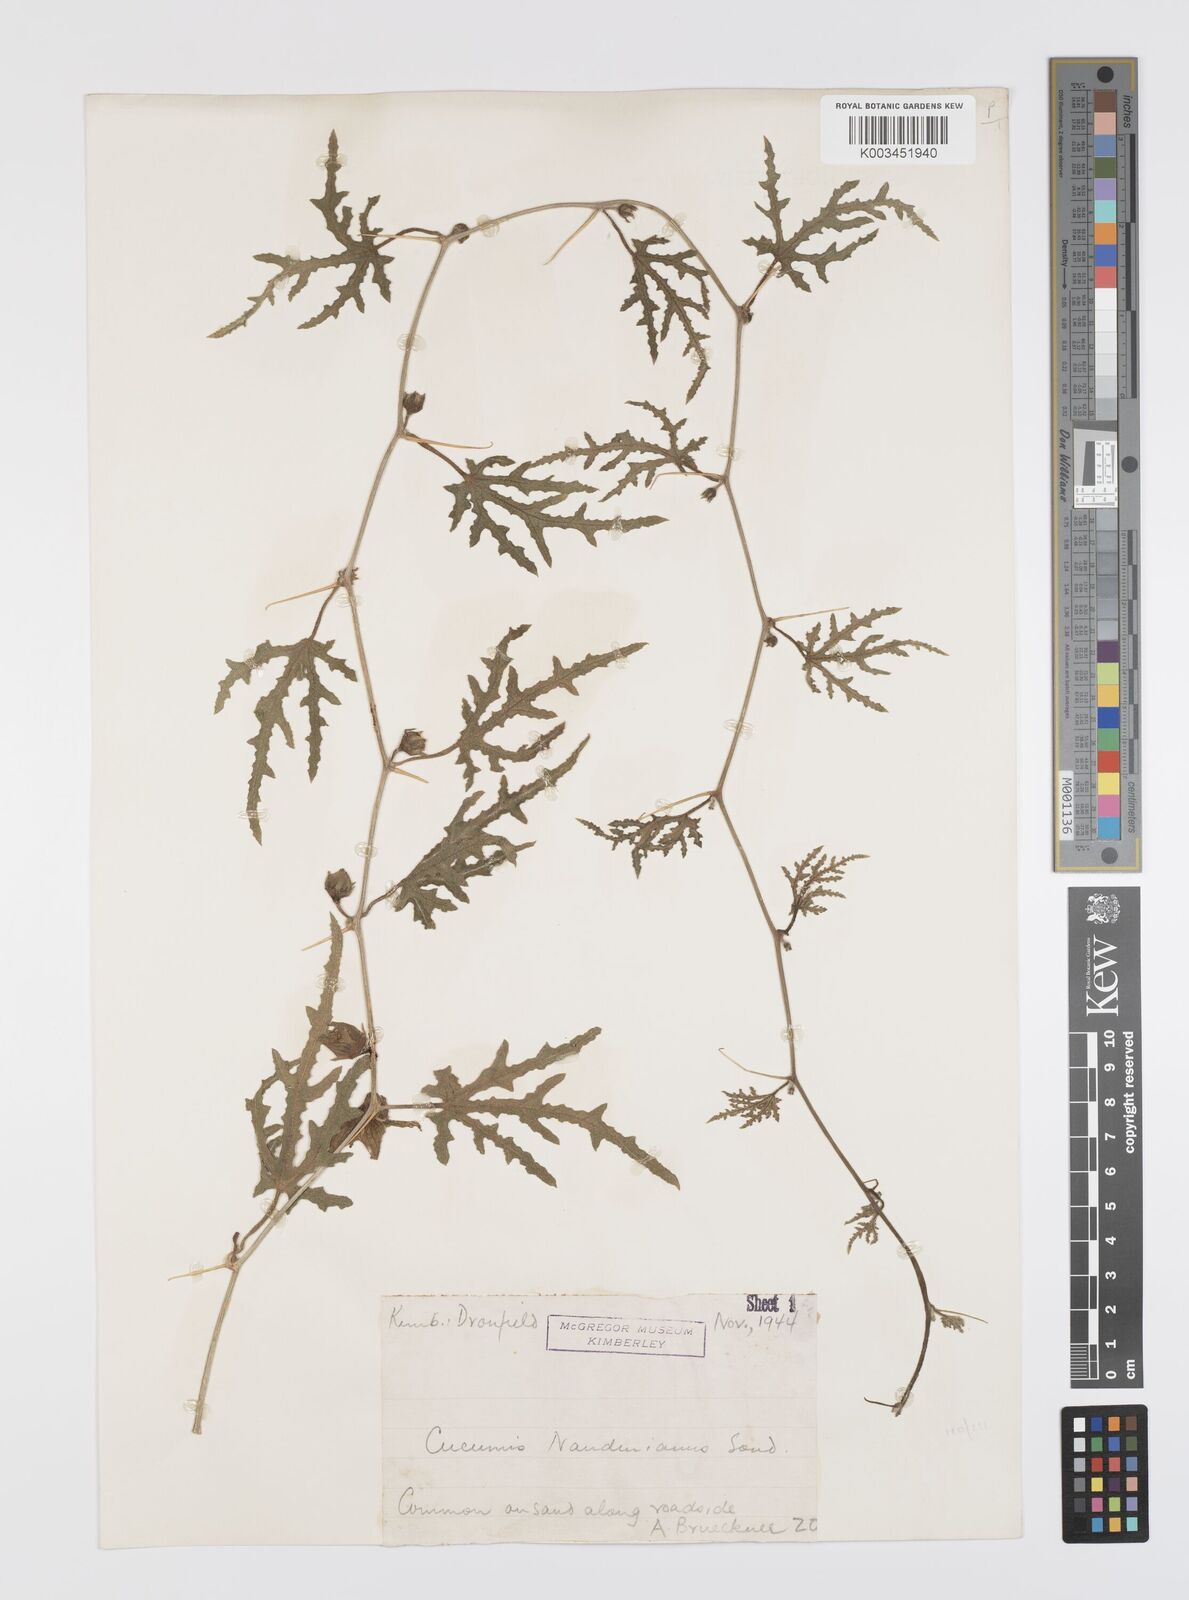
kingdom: Plantae
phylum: Tracheophyta
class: Magnoliopsida
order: Cucurbitales
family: Cucurbitaceae
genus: Citrullus
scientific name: Citrullus naudinianus
